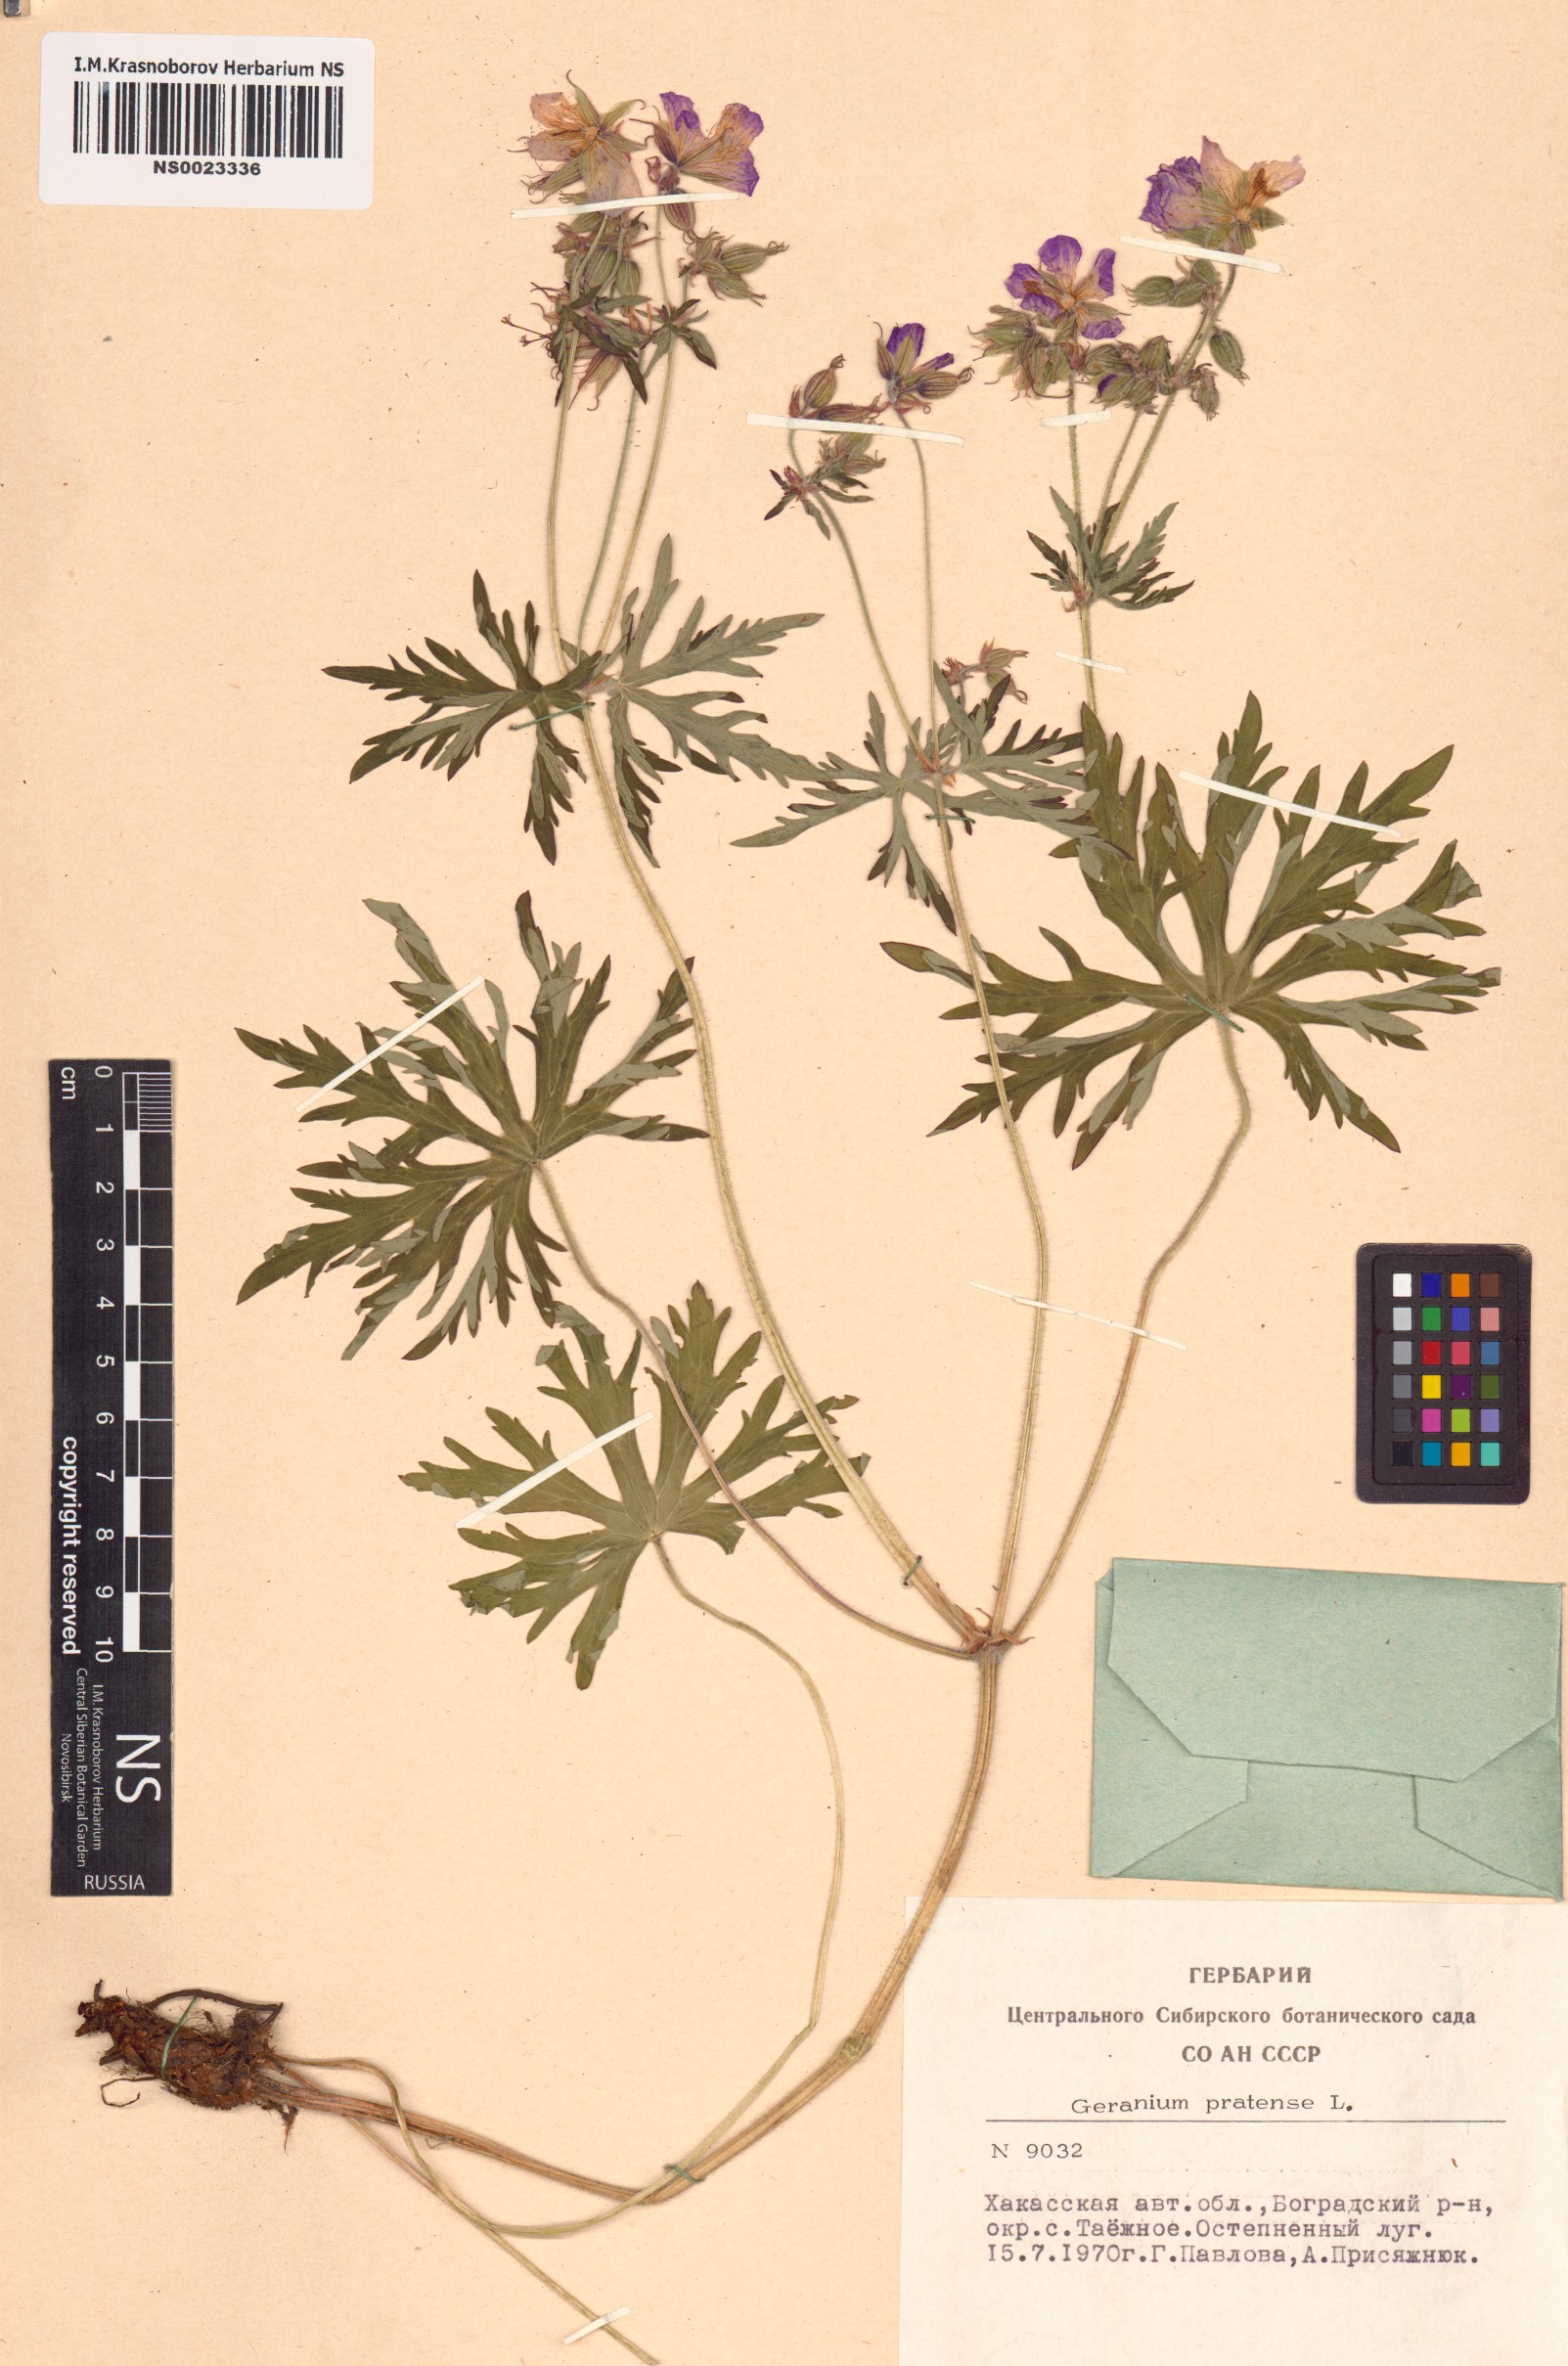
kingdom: Plantae
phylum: Tracheophyta
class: Magnoliopsida
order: Geraniales
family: Geraniaceae
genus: Geranium
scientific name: Geranium pratense
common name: Meadow crane's-bill
